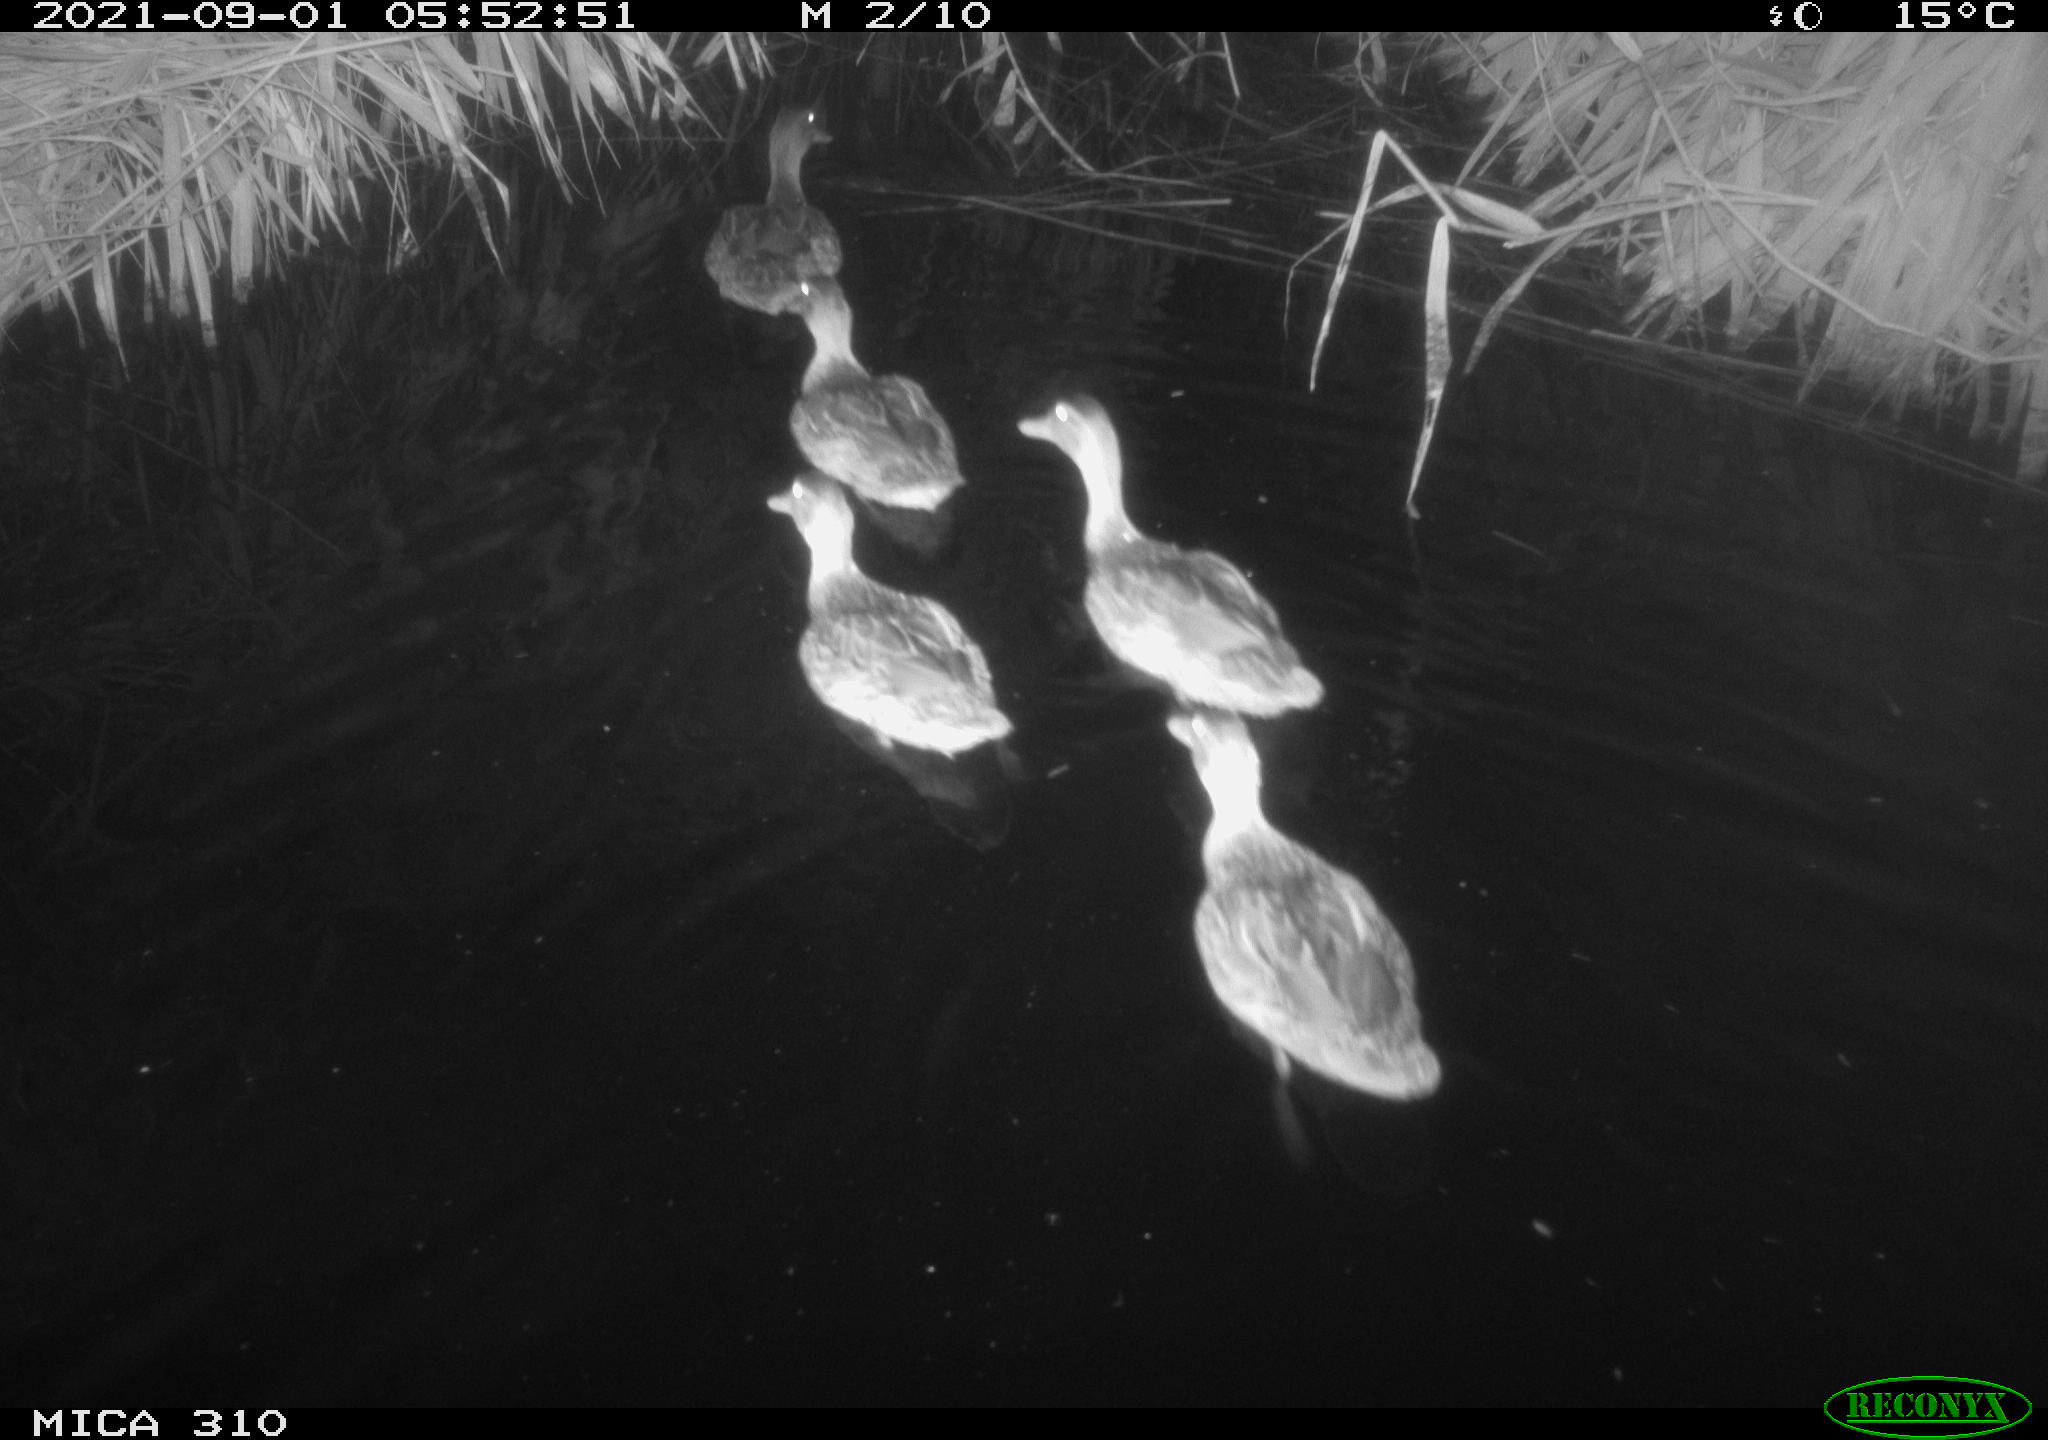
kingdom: Animalia
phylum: Chordata
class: Aves
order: Pelecaniformes
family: Ardeidae
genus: Ardea
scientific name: Ardea
